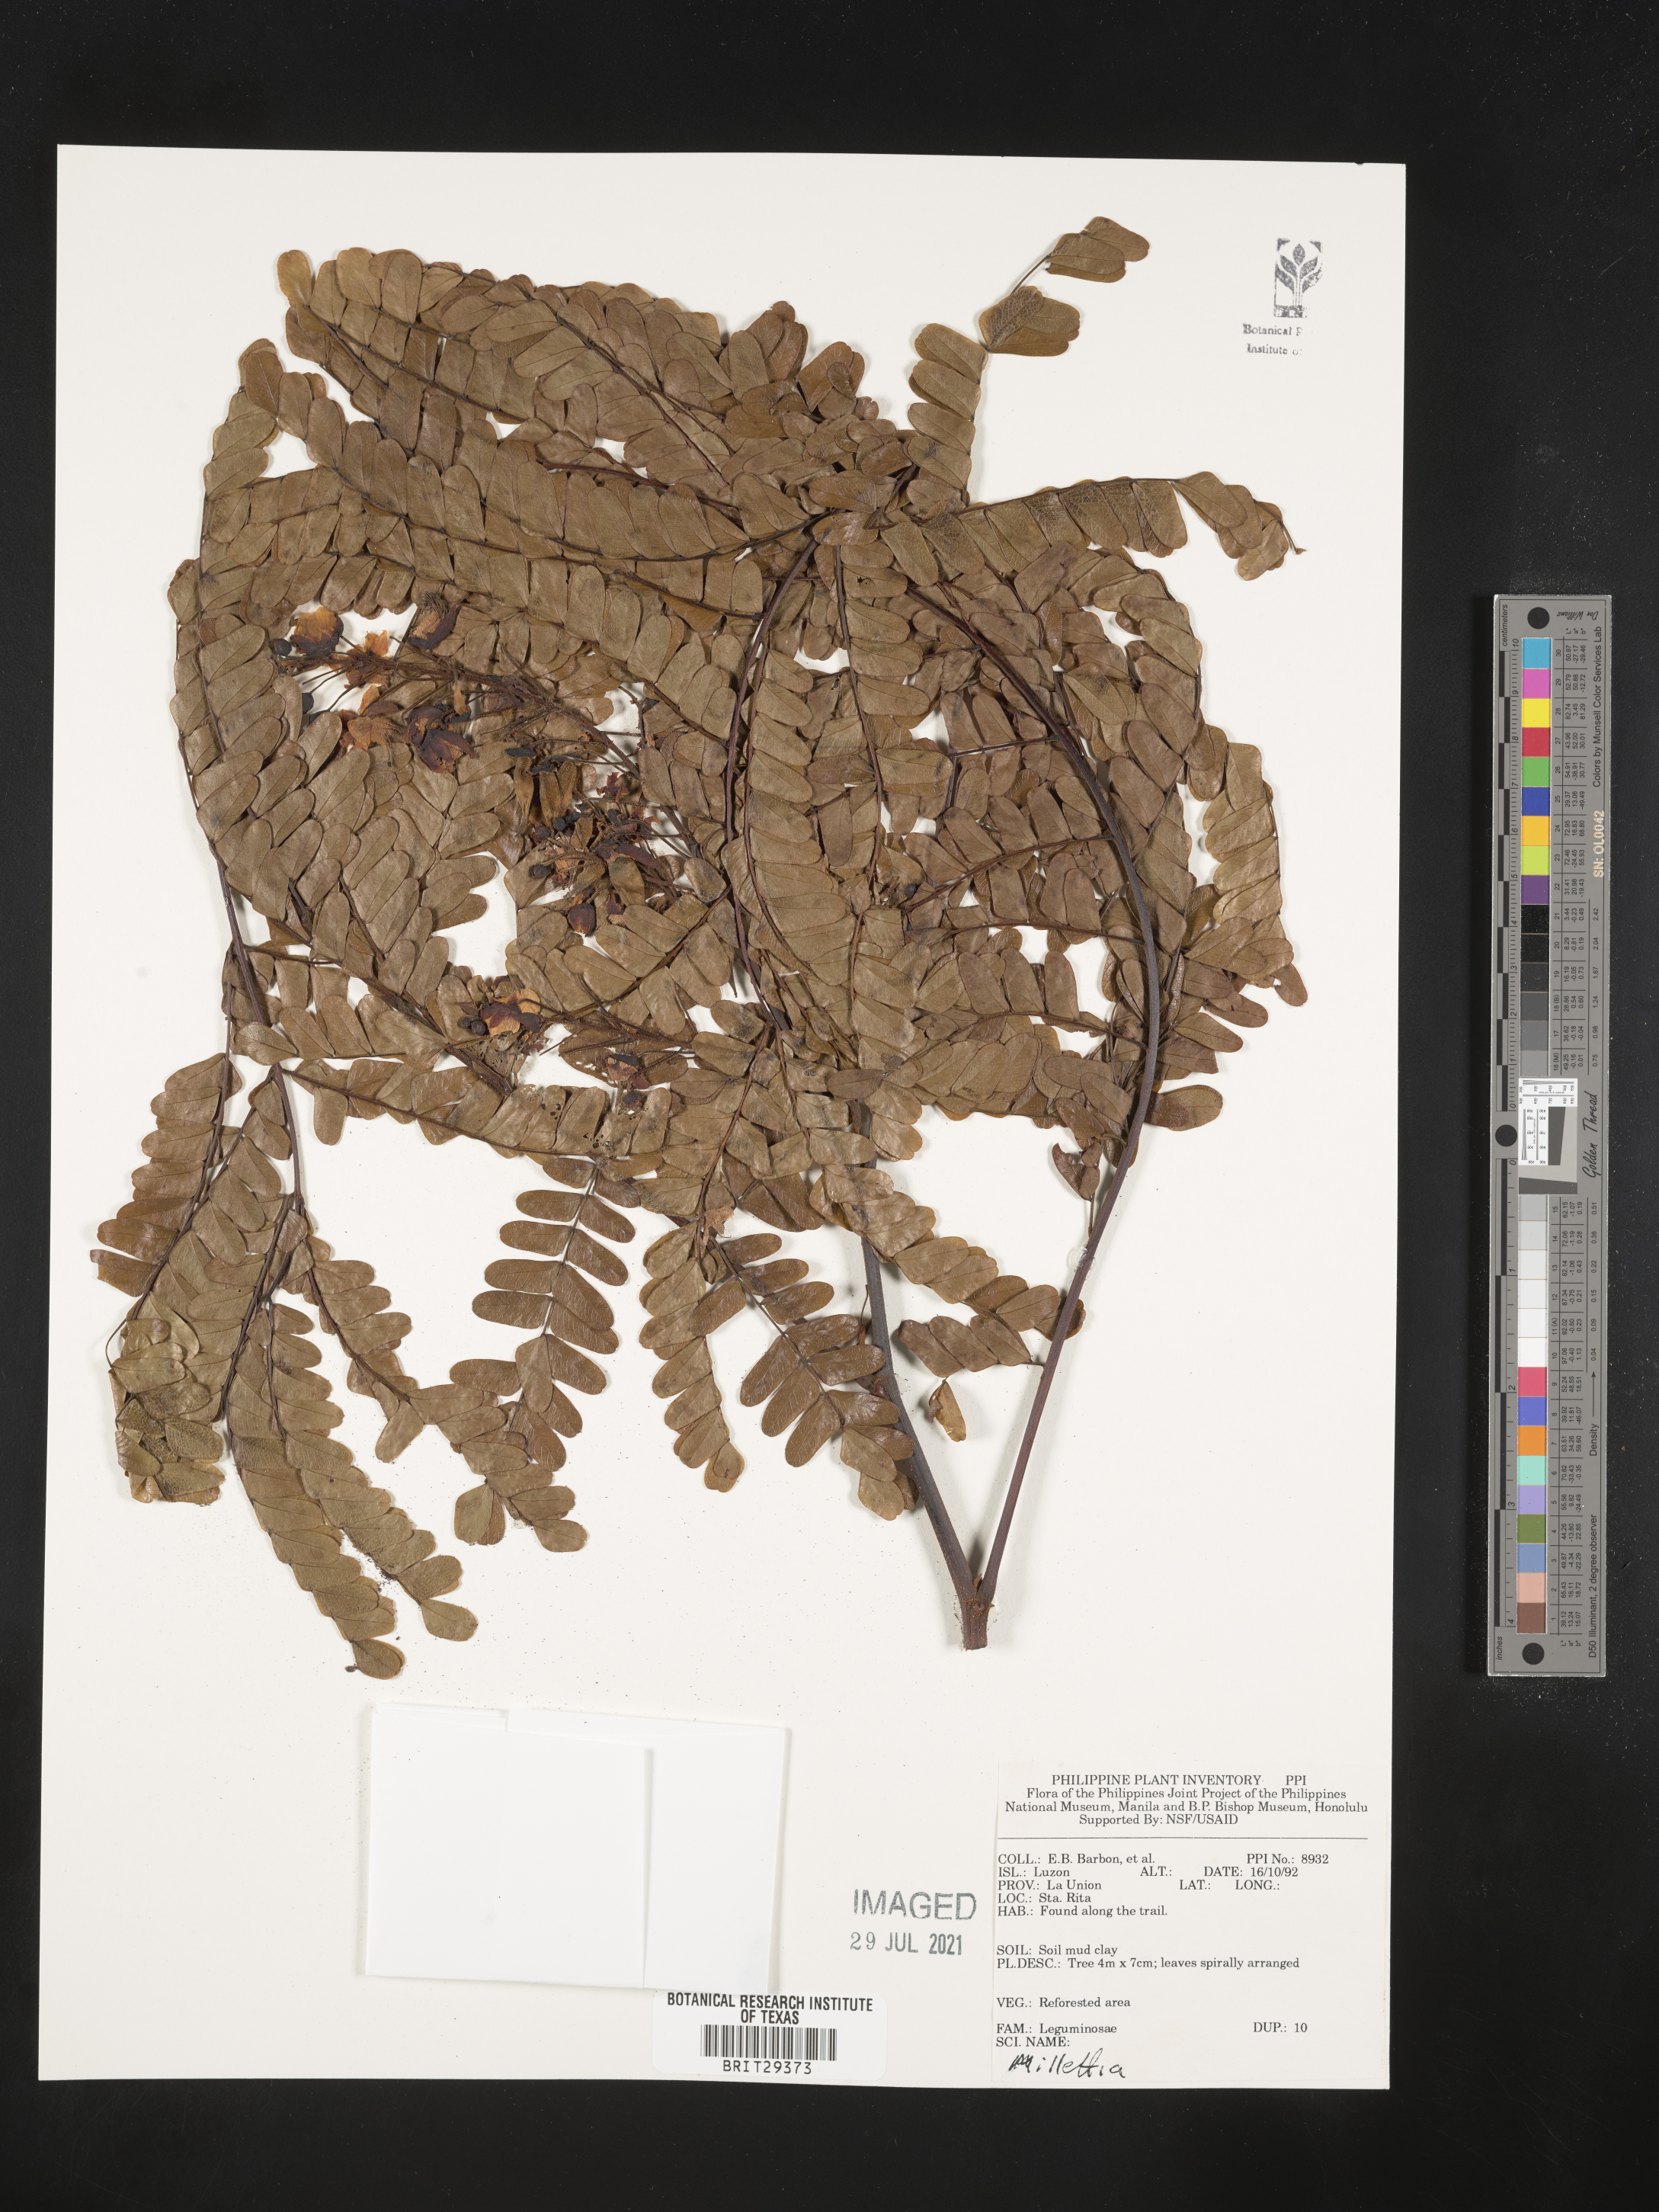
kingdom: Plantae
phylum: Tracheophyta
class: Magnoliopsida
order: Fabales
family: Fabaceae
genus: Millettia
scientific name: Millettia
